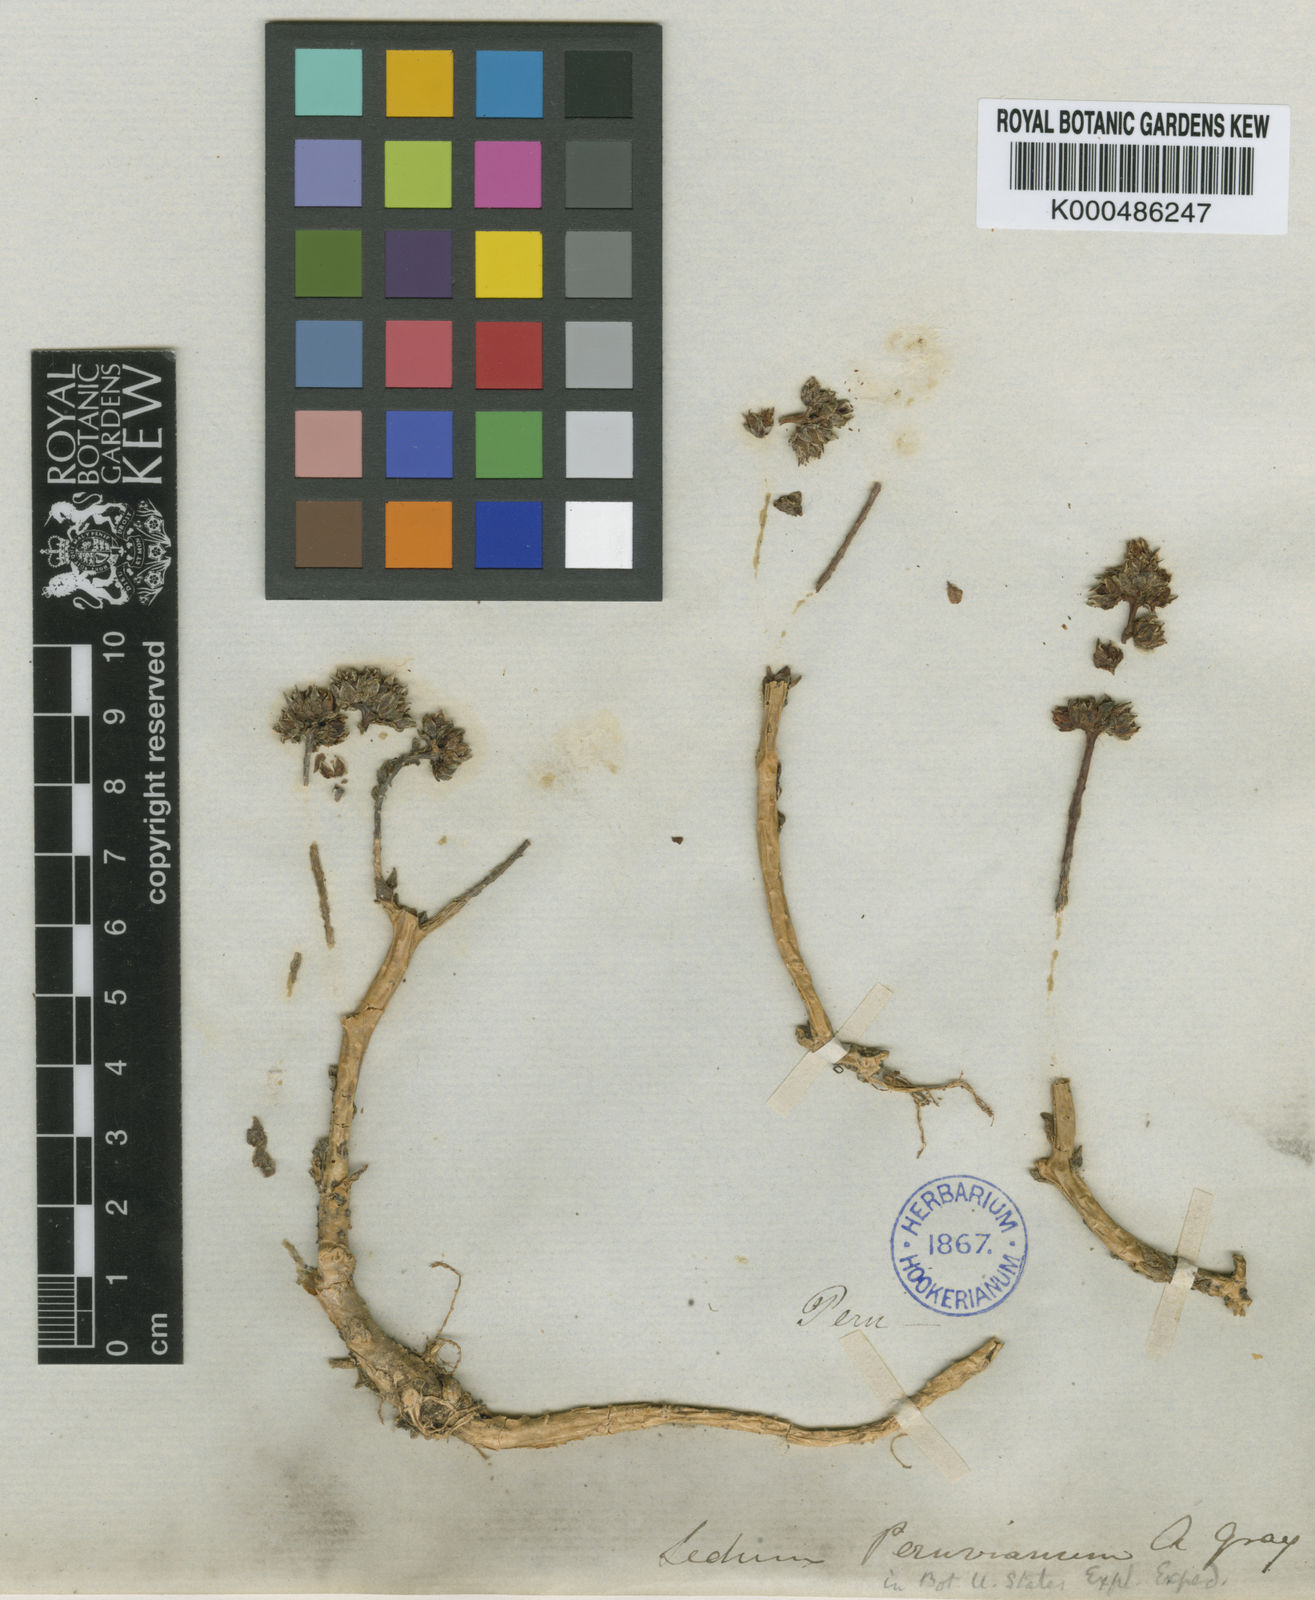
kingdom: Plantae
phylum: Tracheophyta
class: Magnoliopsida
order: Saxifragales
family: Crassulaceae
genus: Villadia
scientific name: Villadia
